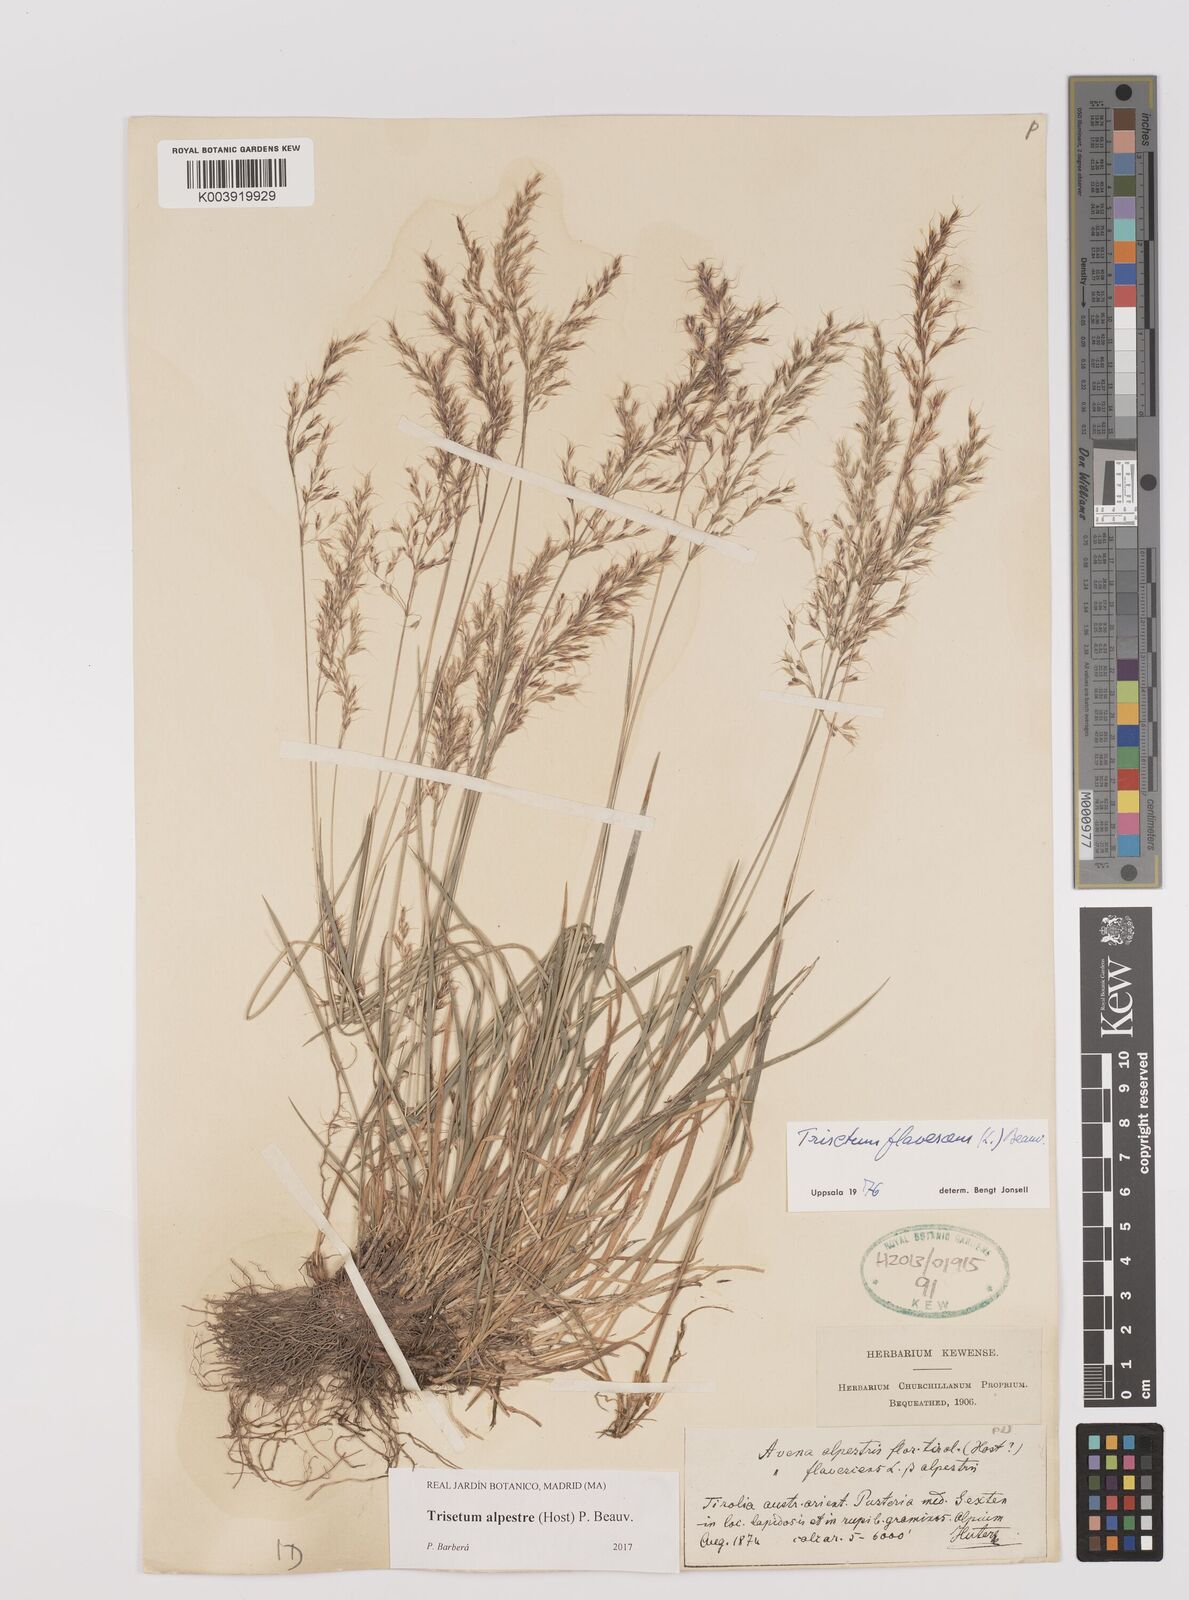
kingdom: Plantae
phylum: Tracheophyta
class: Liliopsida
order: Poales
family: Poaceae
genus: Trisetum
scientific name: Trisetum alpestre
